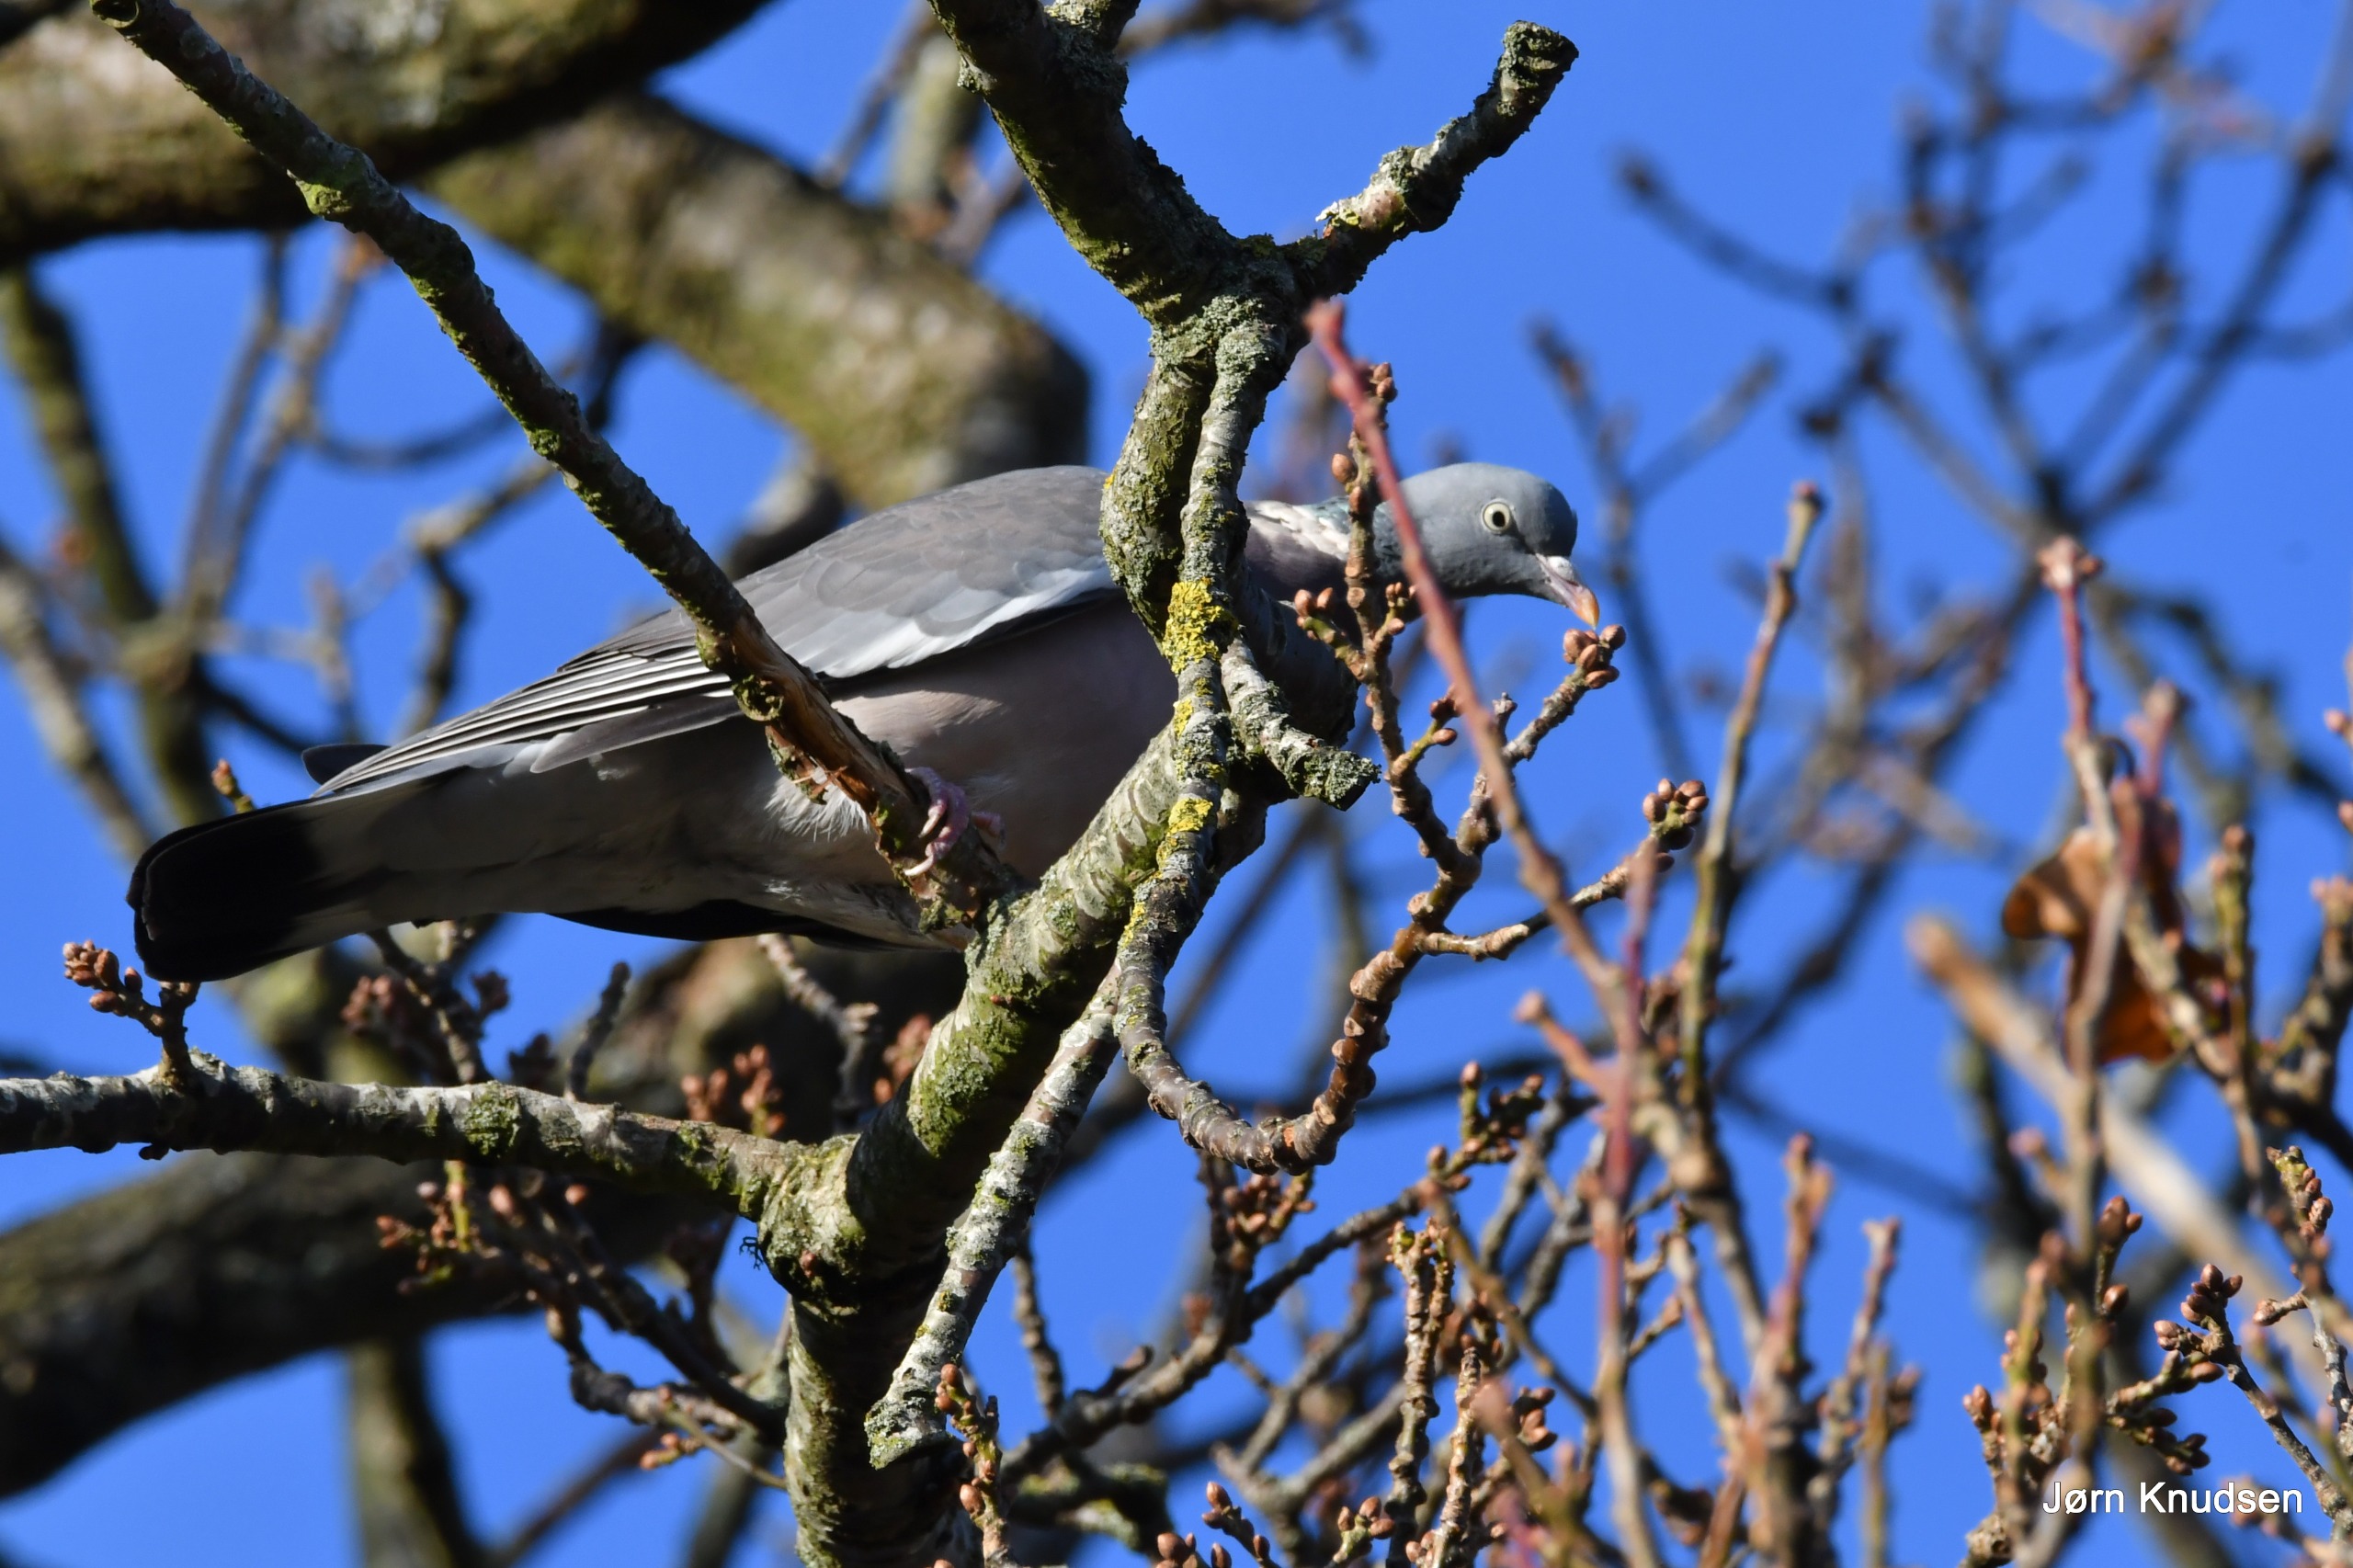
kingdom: Animalia
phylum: Chordata
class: Aves
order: Columbiformes
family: Columbidae
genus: Columba
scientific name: Columba palumbus
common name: Ringdue
